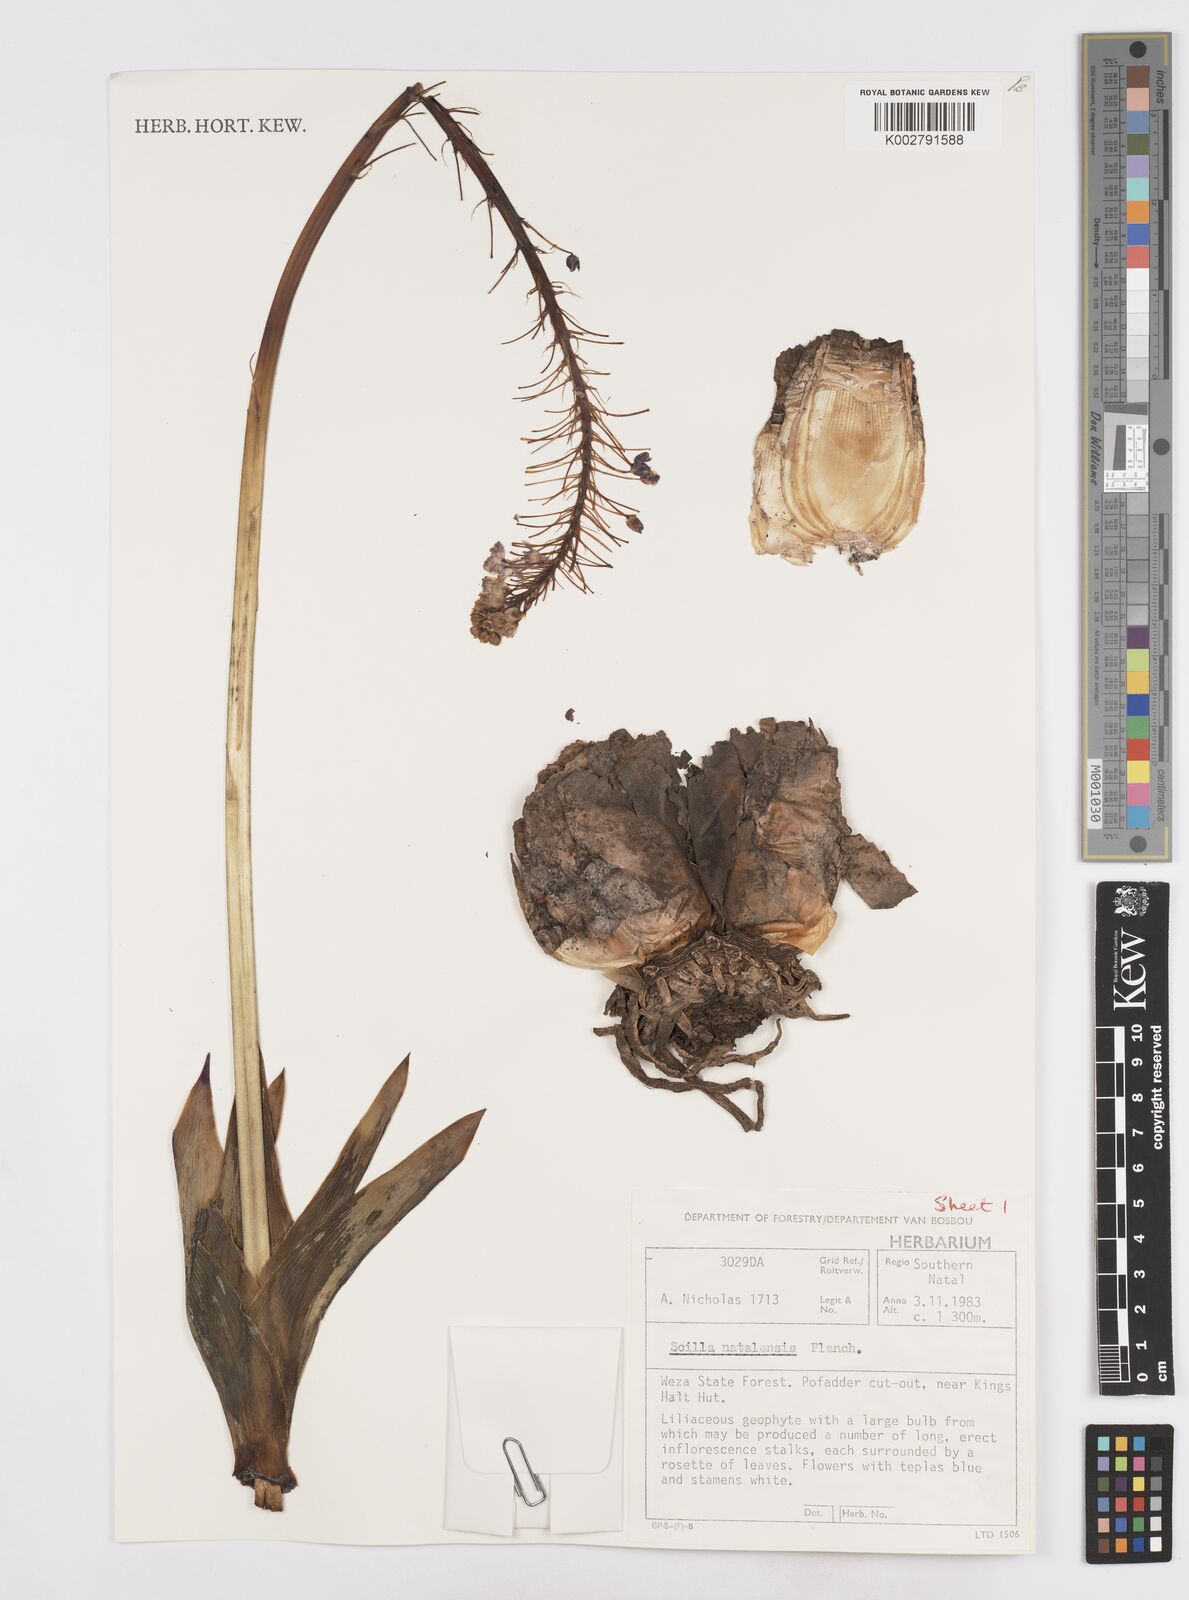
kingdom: Plantae
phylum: Tracheophyta
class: Liliopsida
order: Asparagales
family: Asparagaceae
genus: Merwilla
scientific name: Merwilla plumbea
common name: Blue-squill
